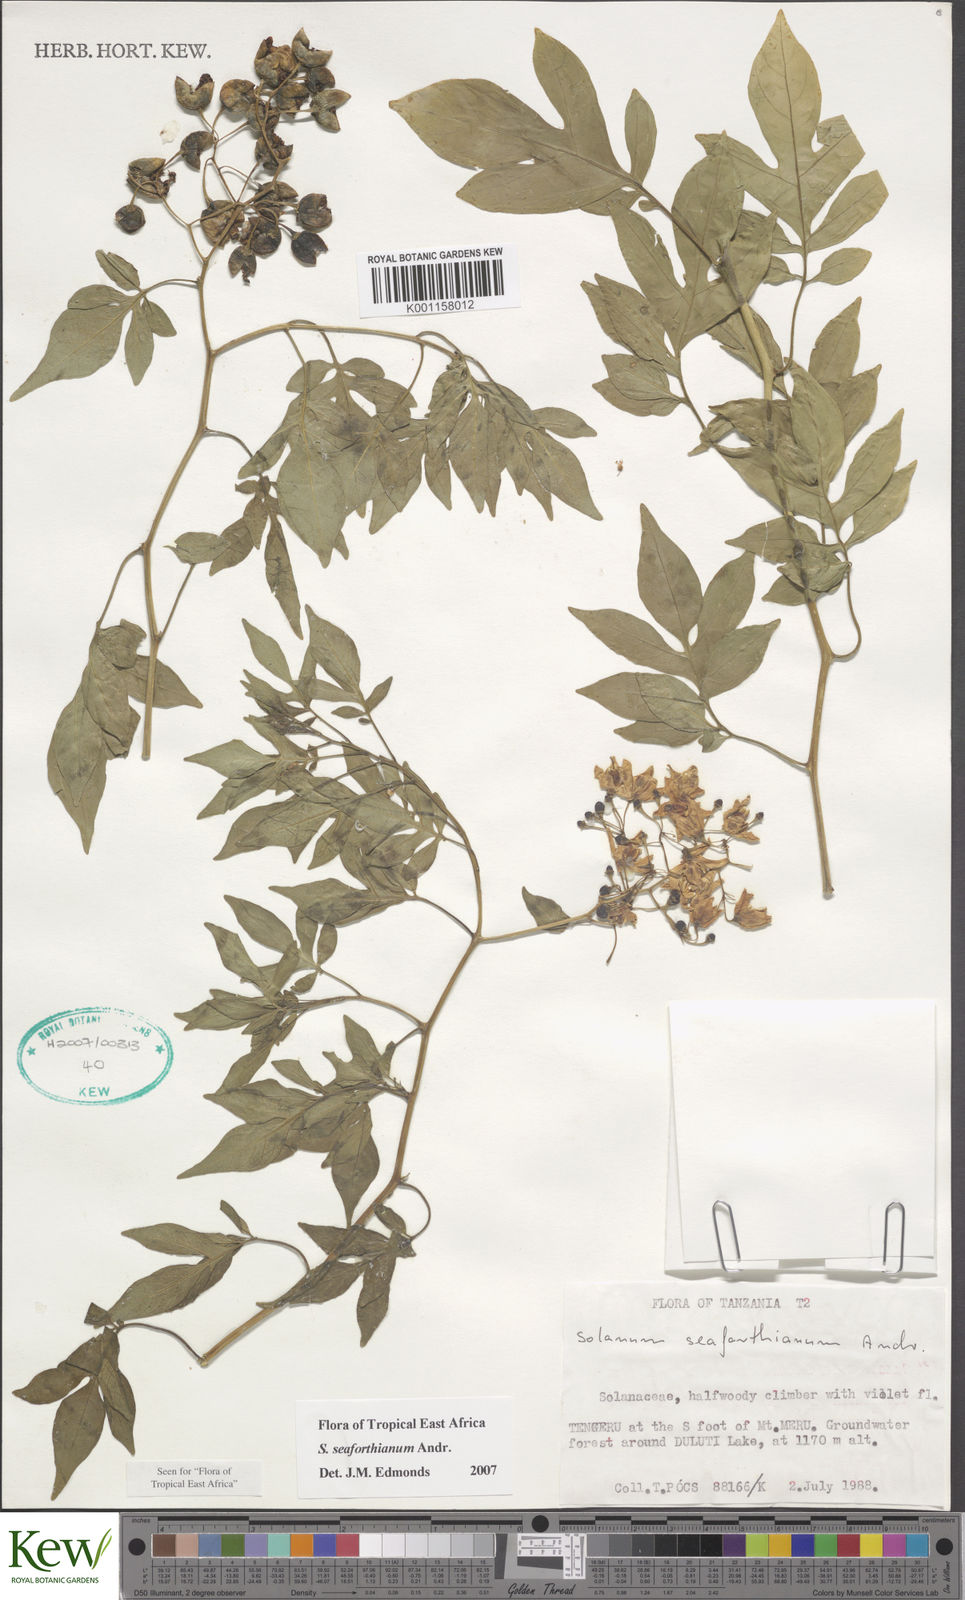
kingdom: Plantae
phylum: Tracheophyta
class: Magnoliopsida
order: Solanales
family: Solanaceae
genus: Solanum
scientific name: Solanum seaforthianum
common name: Brazilian nightshade
